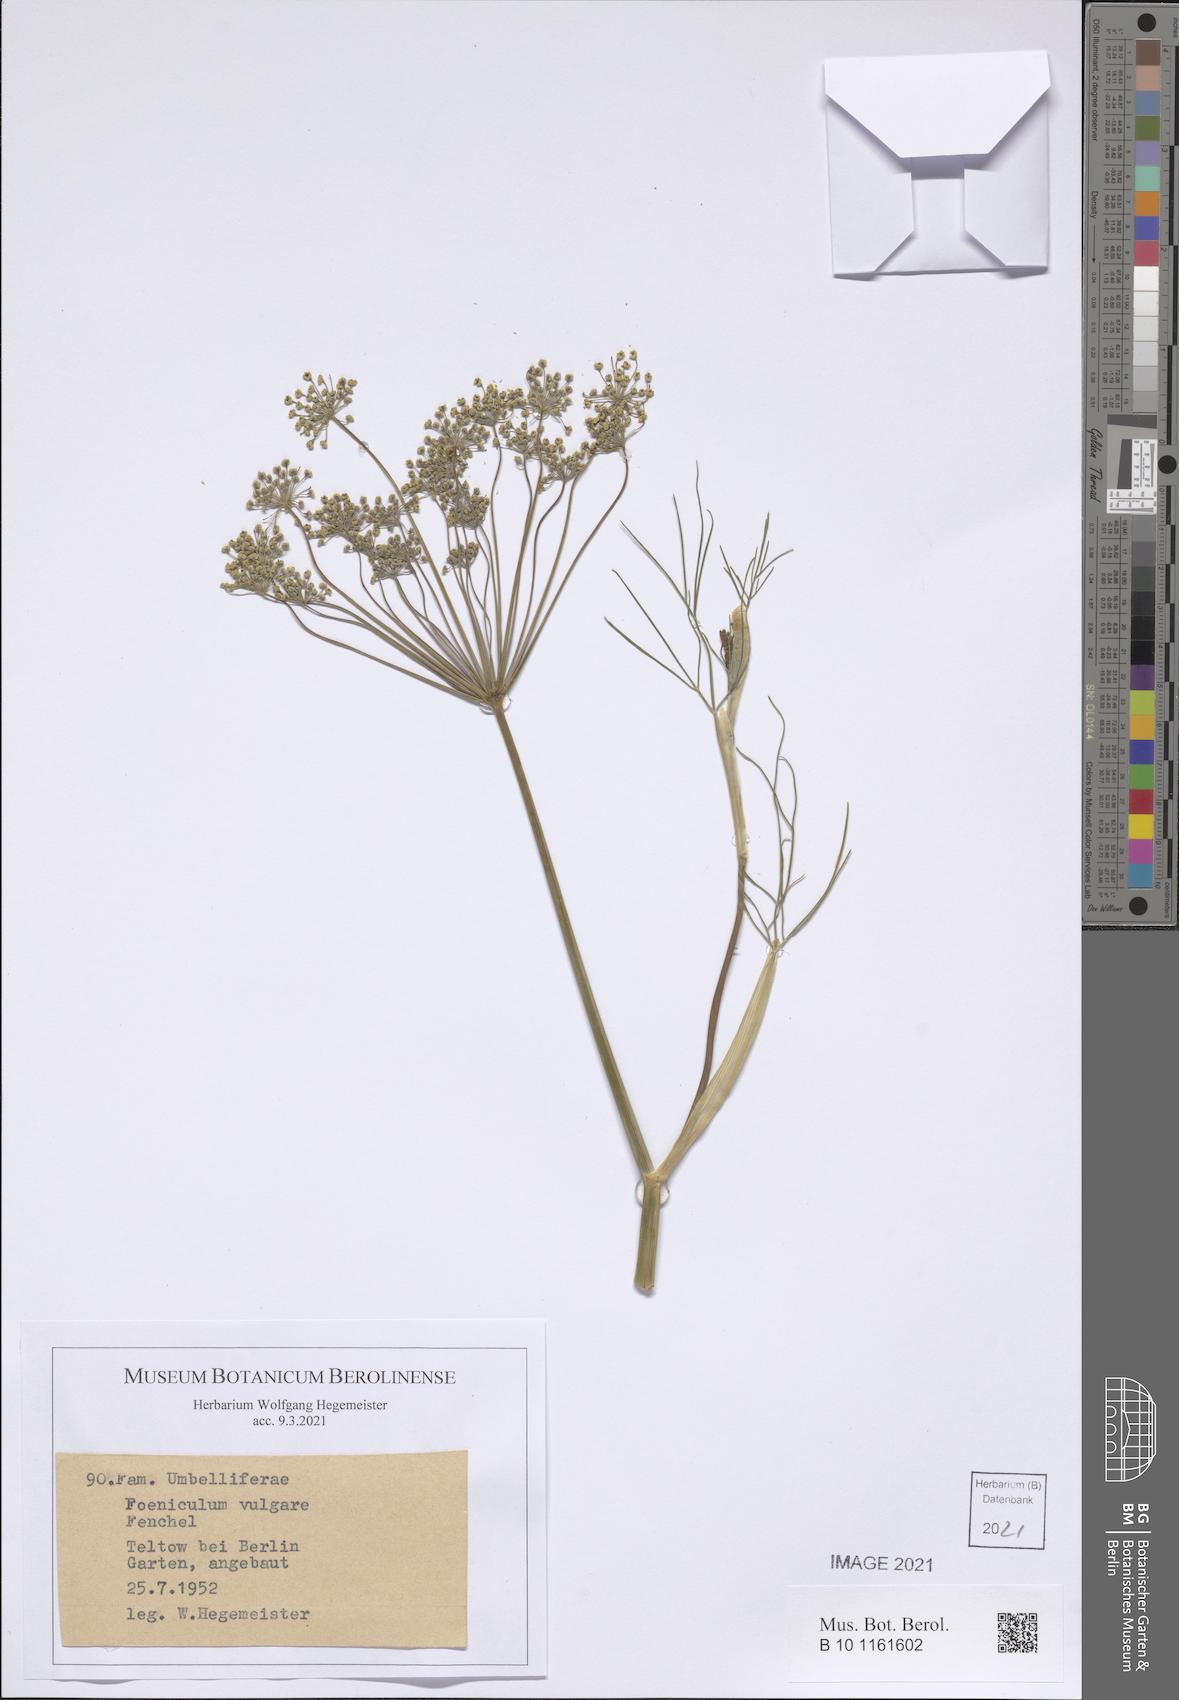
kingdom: Plantae
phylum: Tracheophyta
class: Magnoliopsida
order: Apiales
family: Apiaceae
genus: Foeniculum
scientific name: Foeniculum vulgare
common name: Fennel
